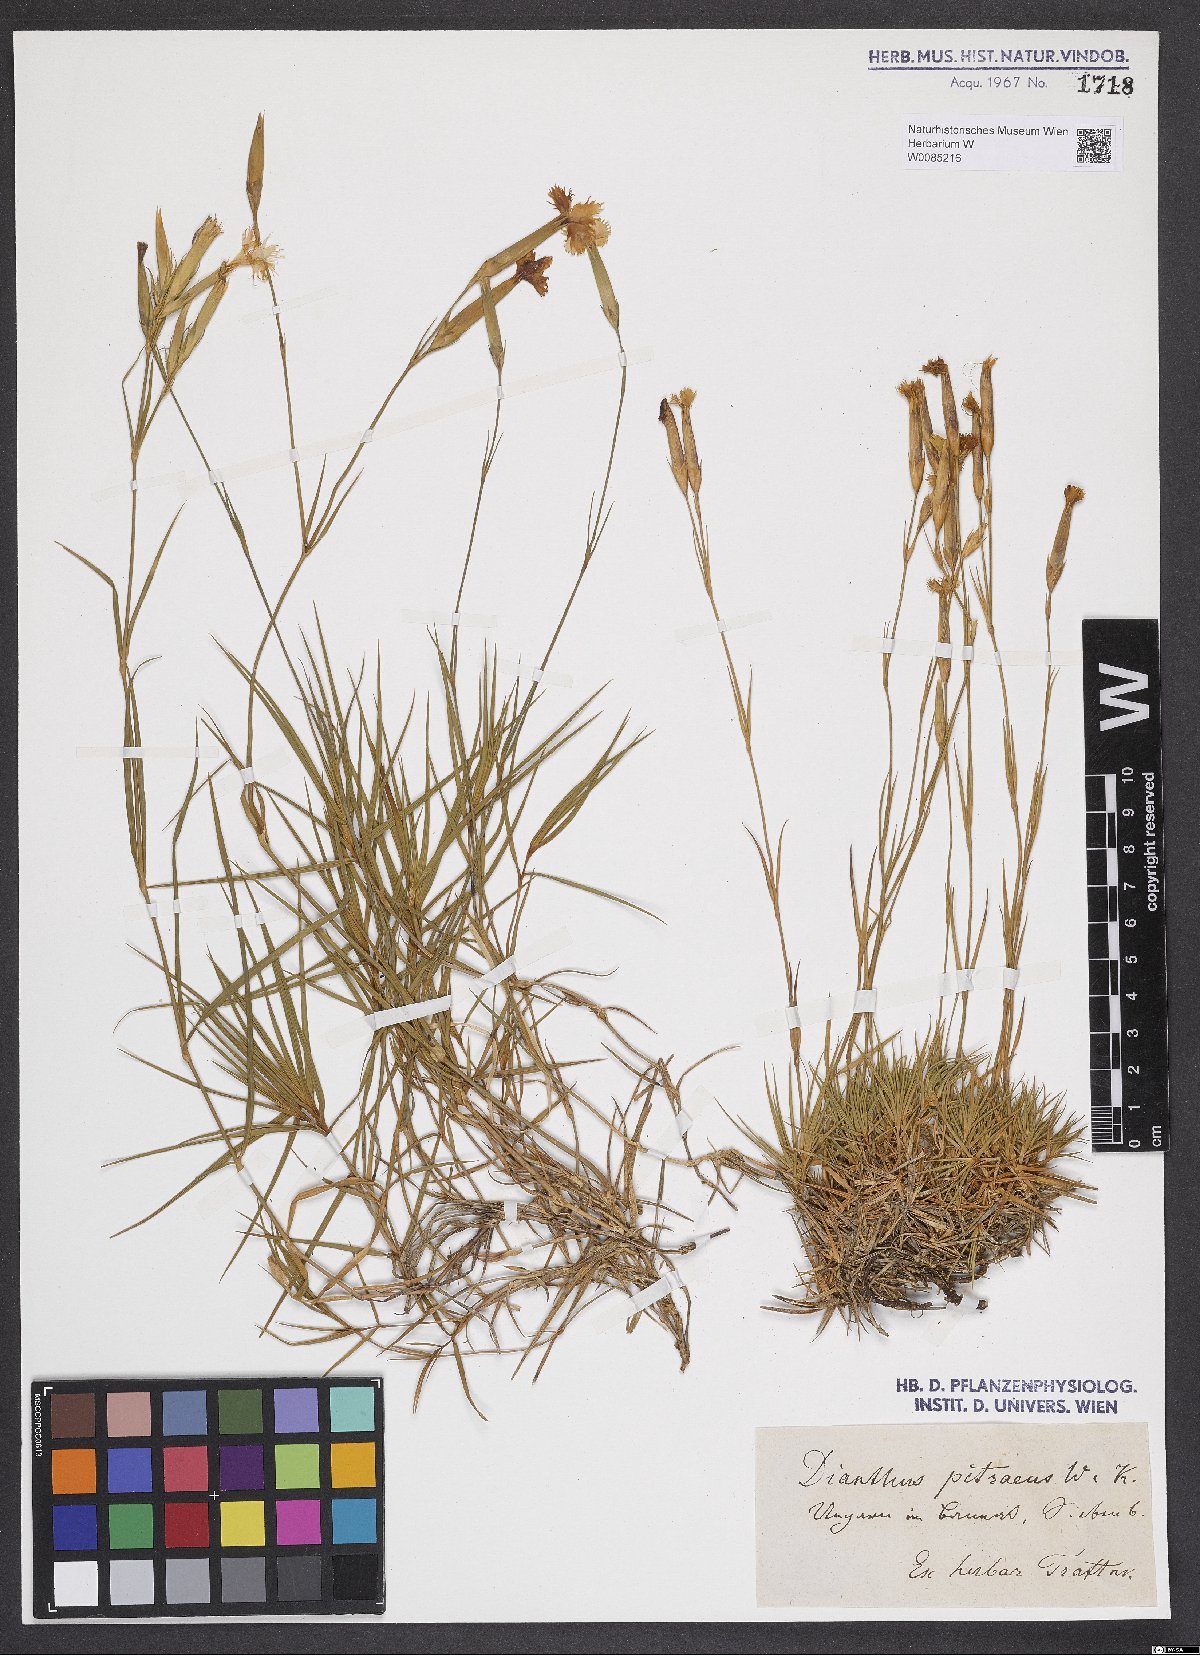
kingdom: Plantae
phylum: Tracheophyta
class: Magnoliopsida
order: Caryophyllales
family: Caryophyllaceae
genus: Dianthus
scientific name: Dianthus petraeus
